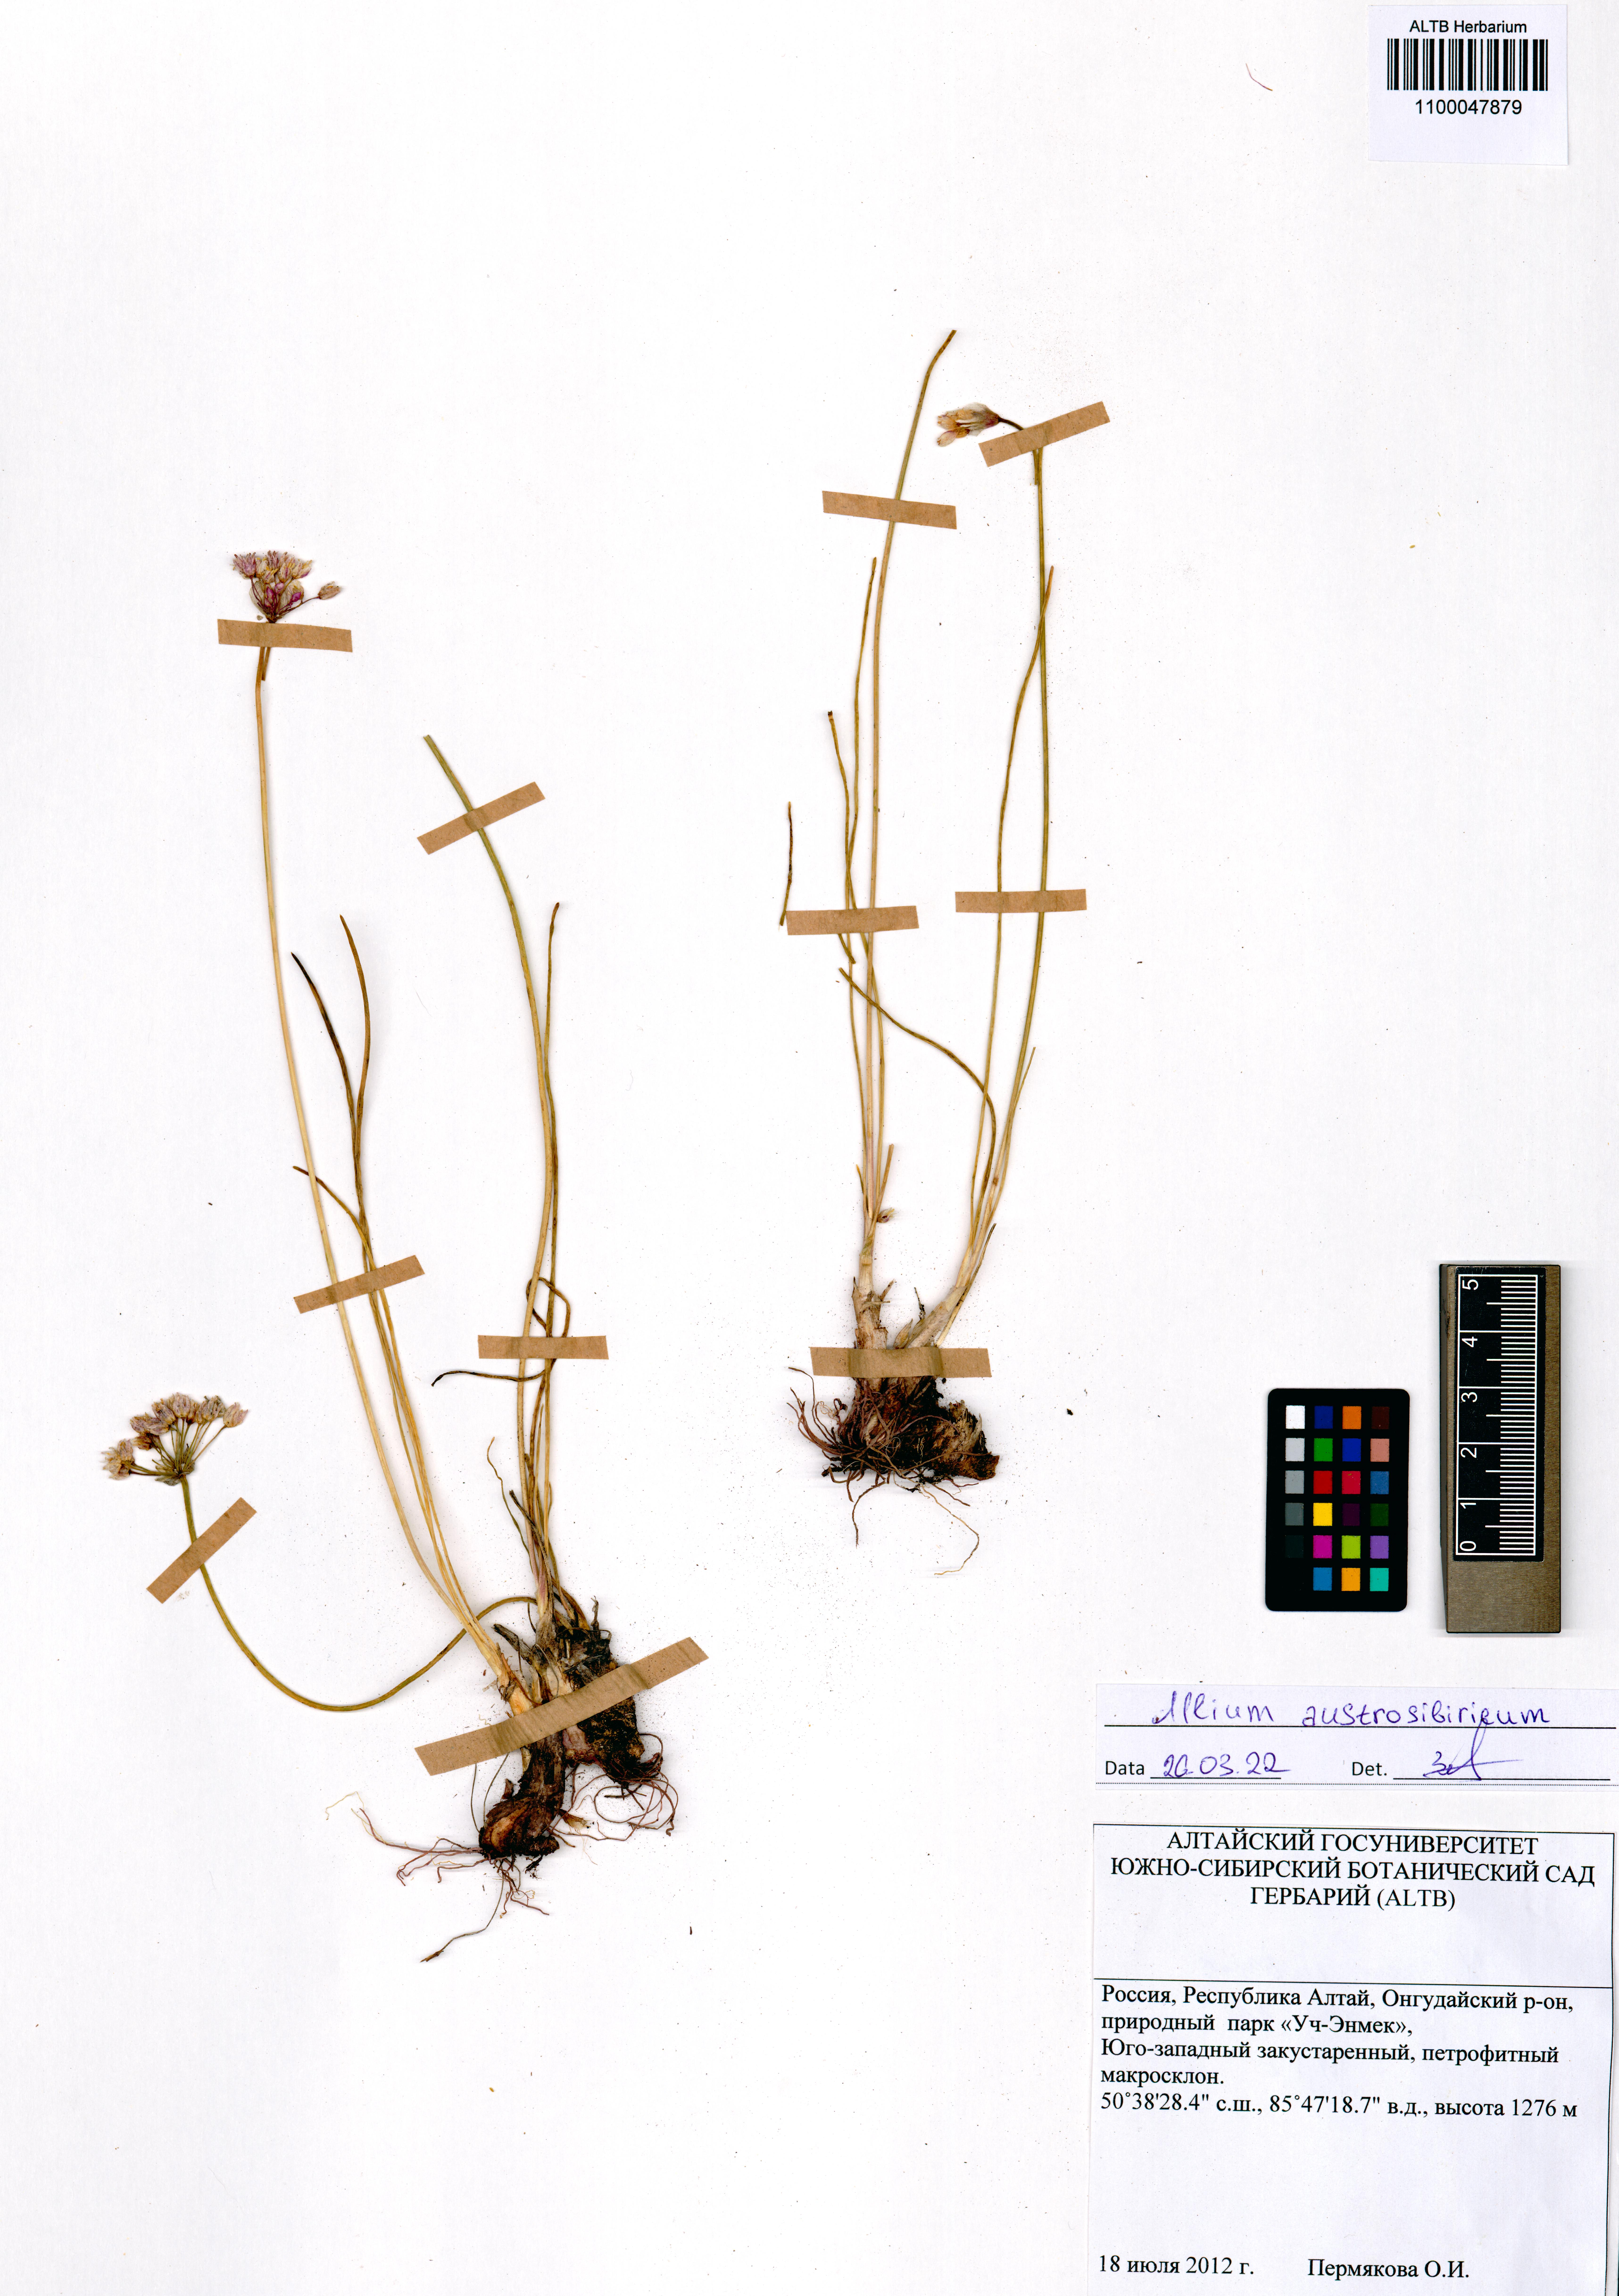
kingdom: Plantae
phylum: Tracheophyta
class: Liliopsida
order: Asparagales
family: Amaryllidaceae
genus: Allium
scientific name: Allium austrosibiricum
